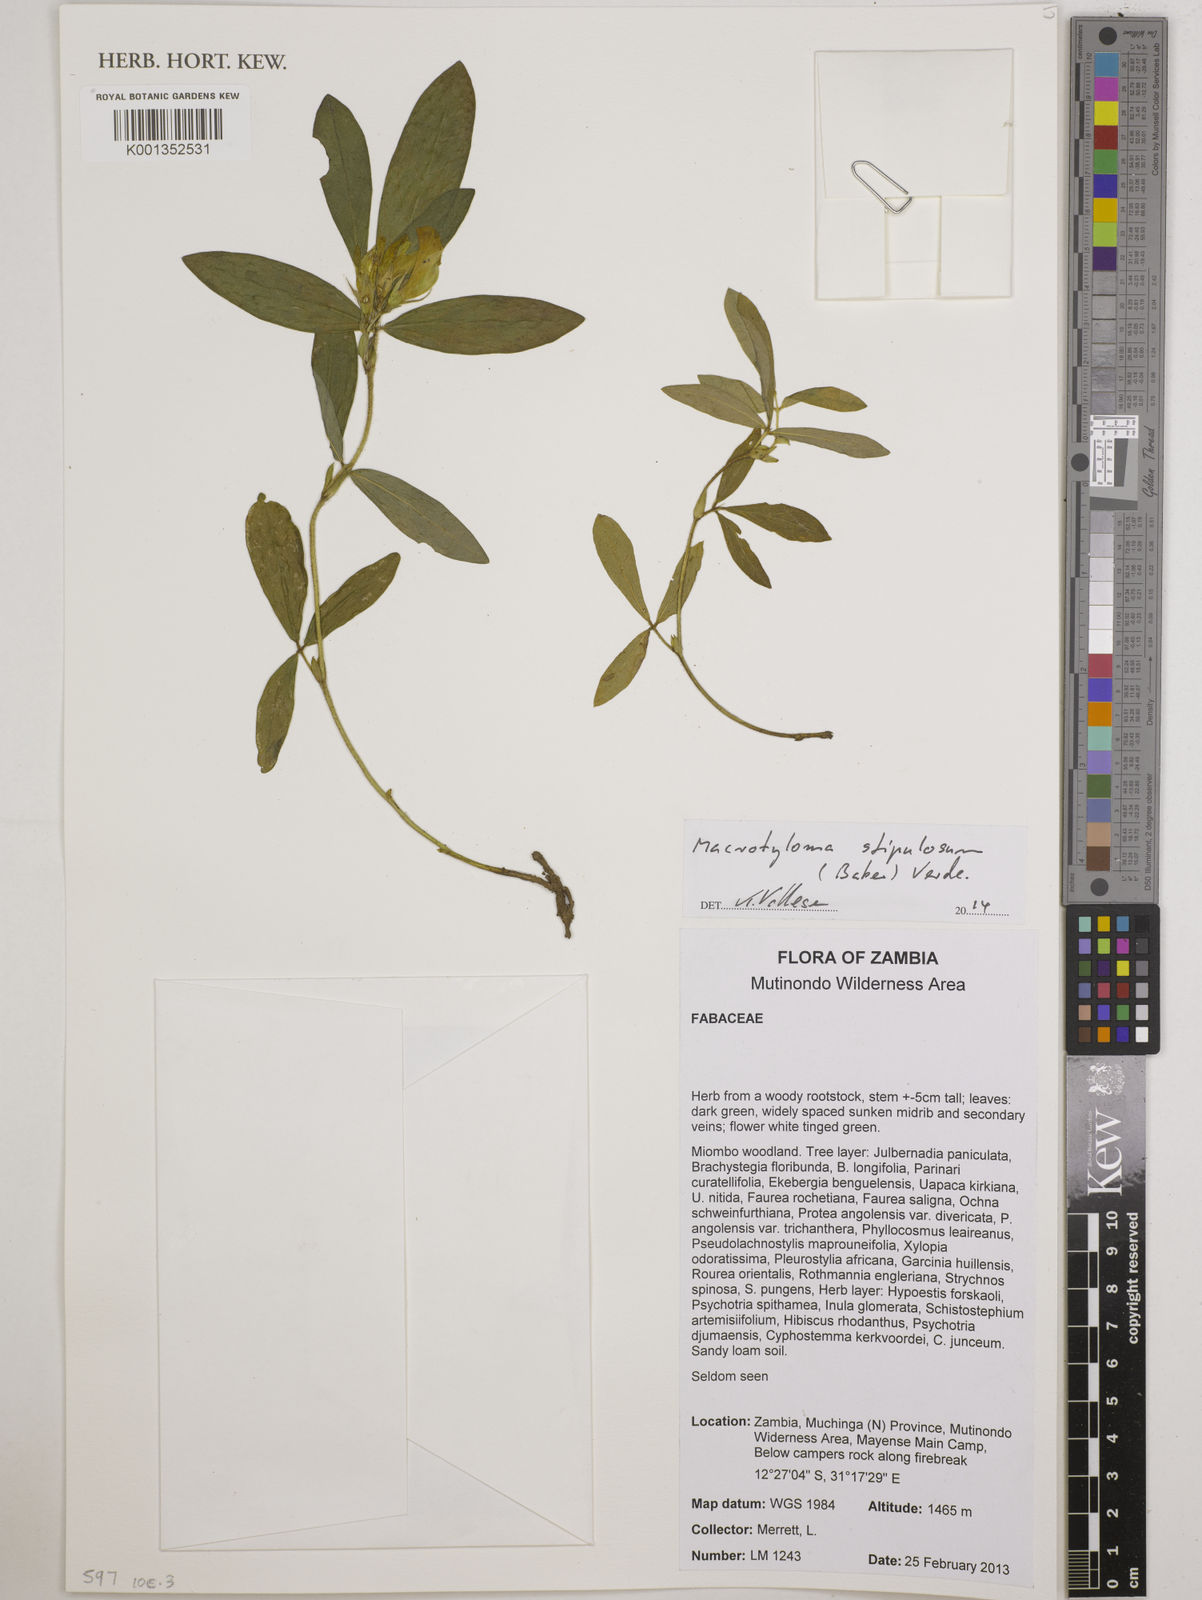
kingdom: Plantae
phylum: Tracheophyta
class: Magnoliopsida
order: Fabales
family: Fabaceae
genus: Macrotyloma
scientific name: Macrotyloma stipulosum
